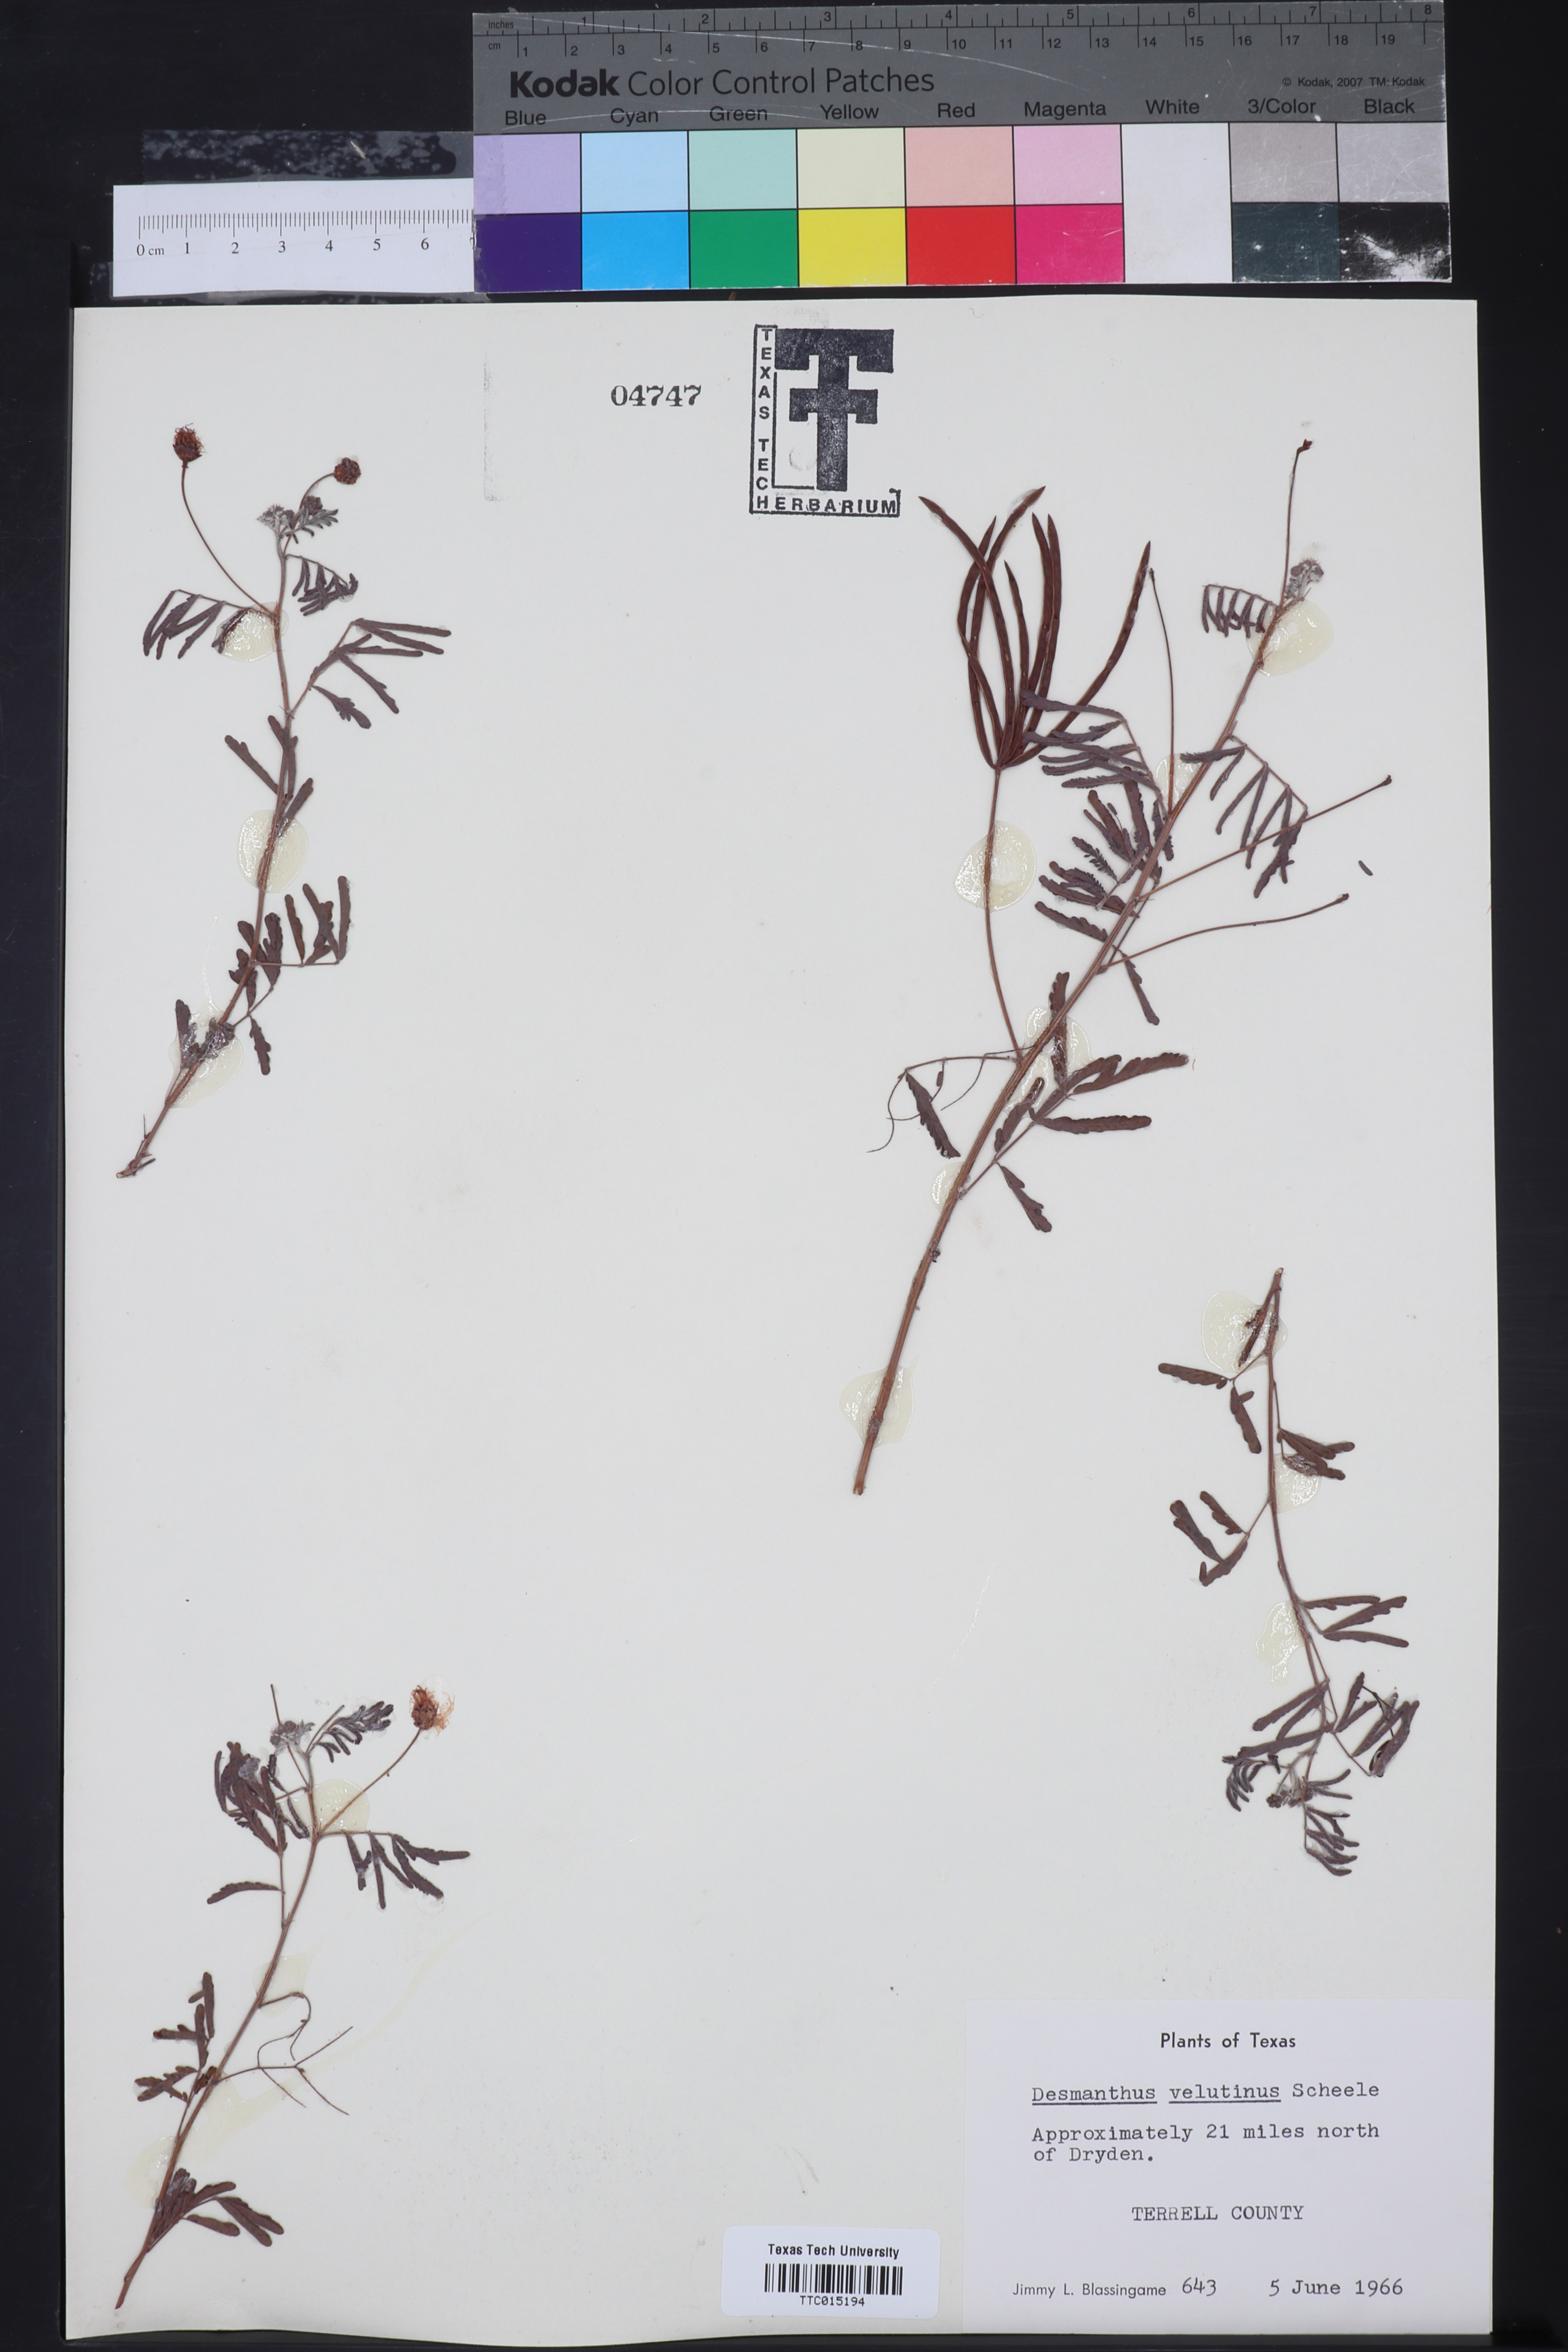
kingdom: Plantae
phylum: Tracheophyta
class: Magnoliopsida
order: Fabales
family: Fabaceae
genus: Desmanthus
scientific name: Desmanthus velutinus
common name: Velvet bundle-flower
